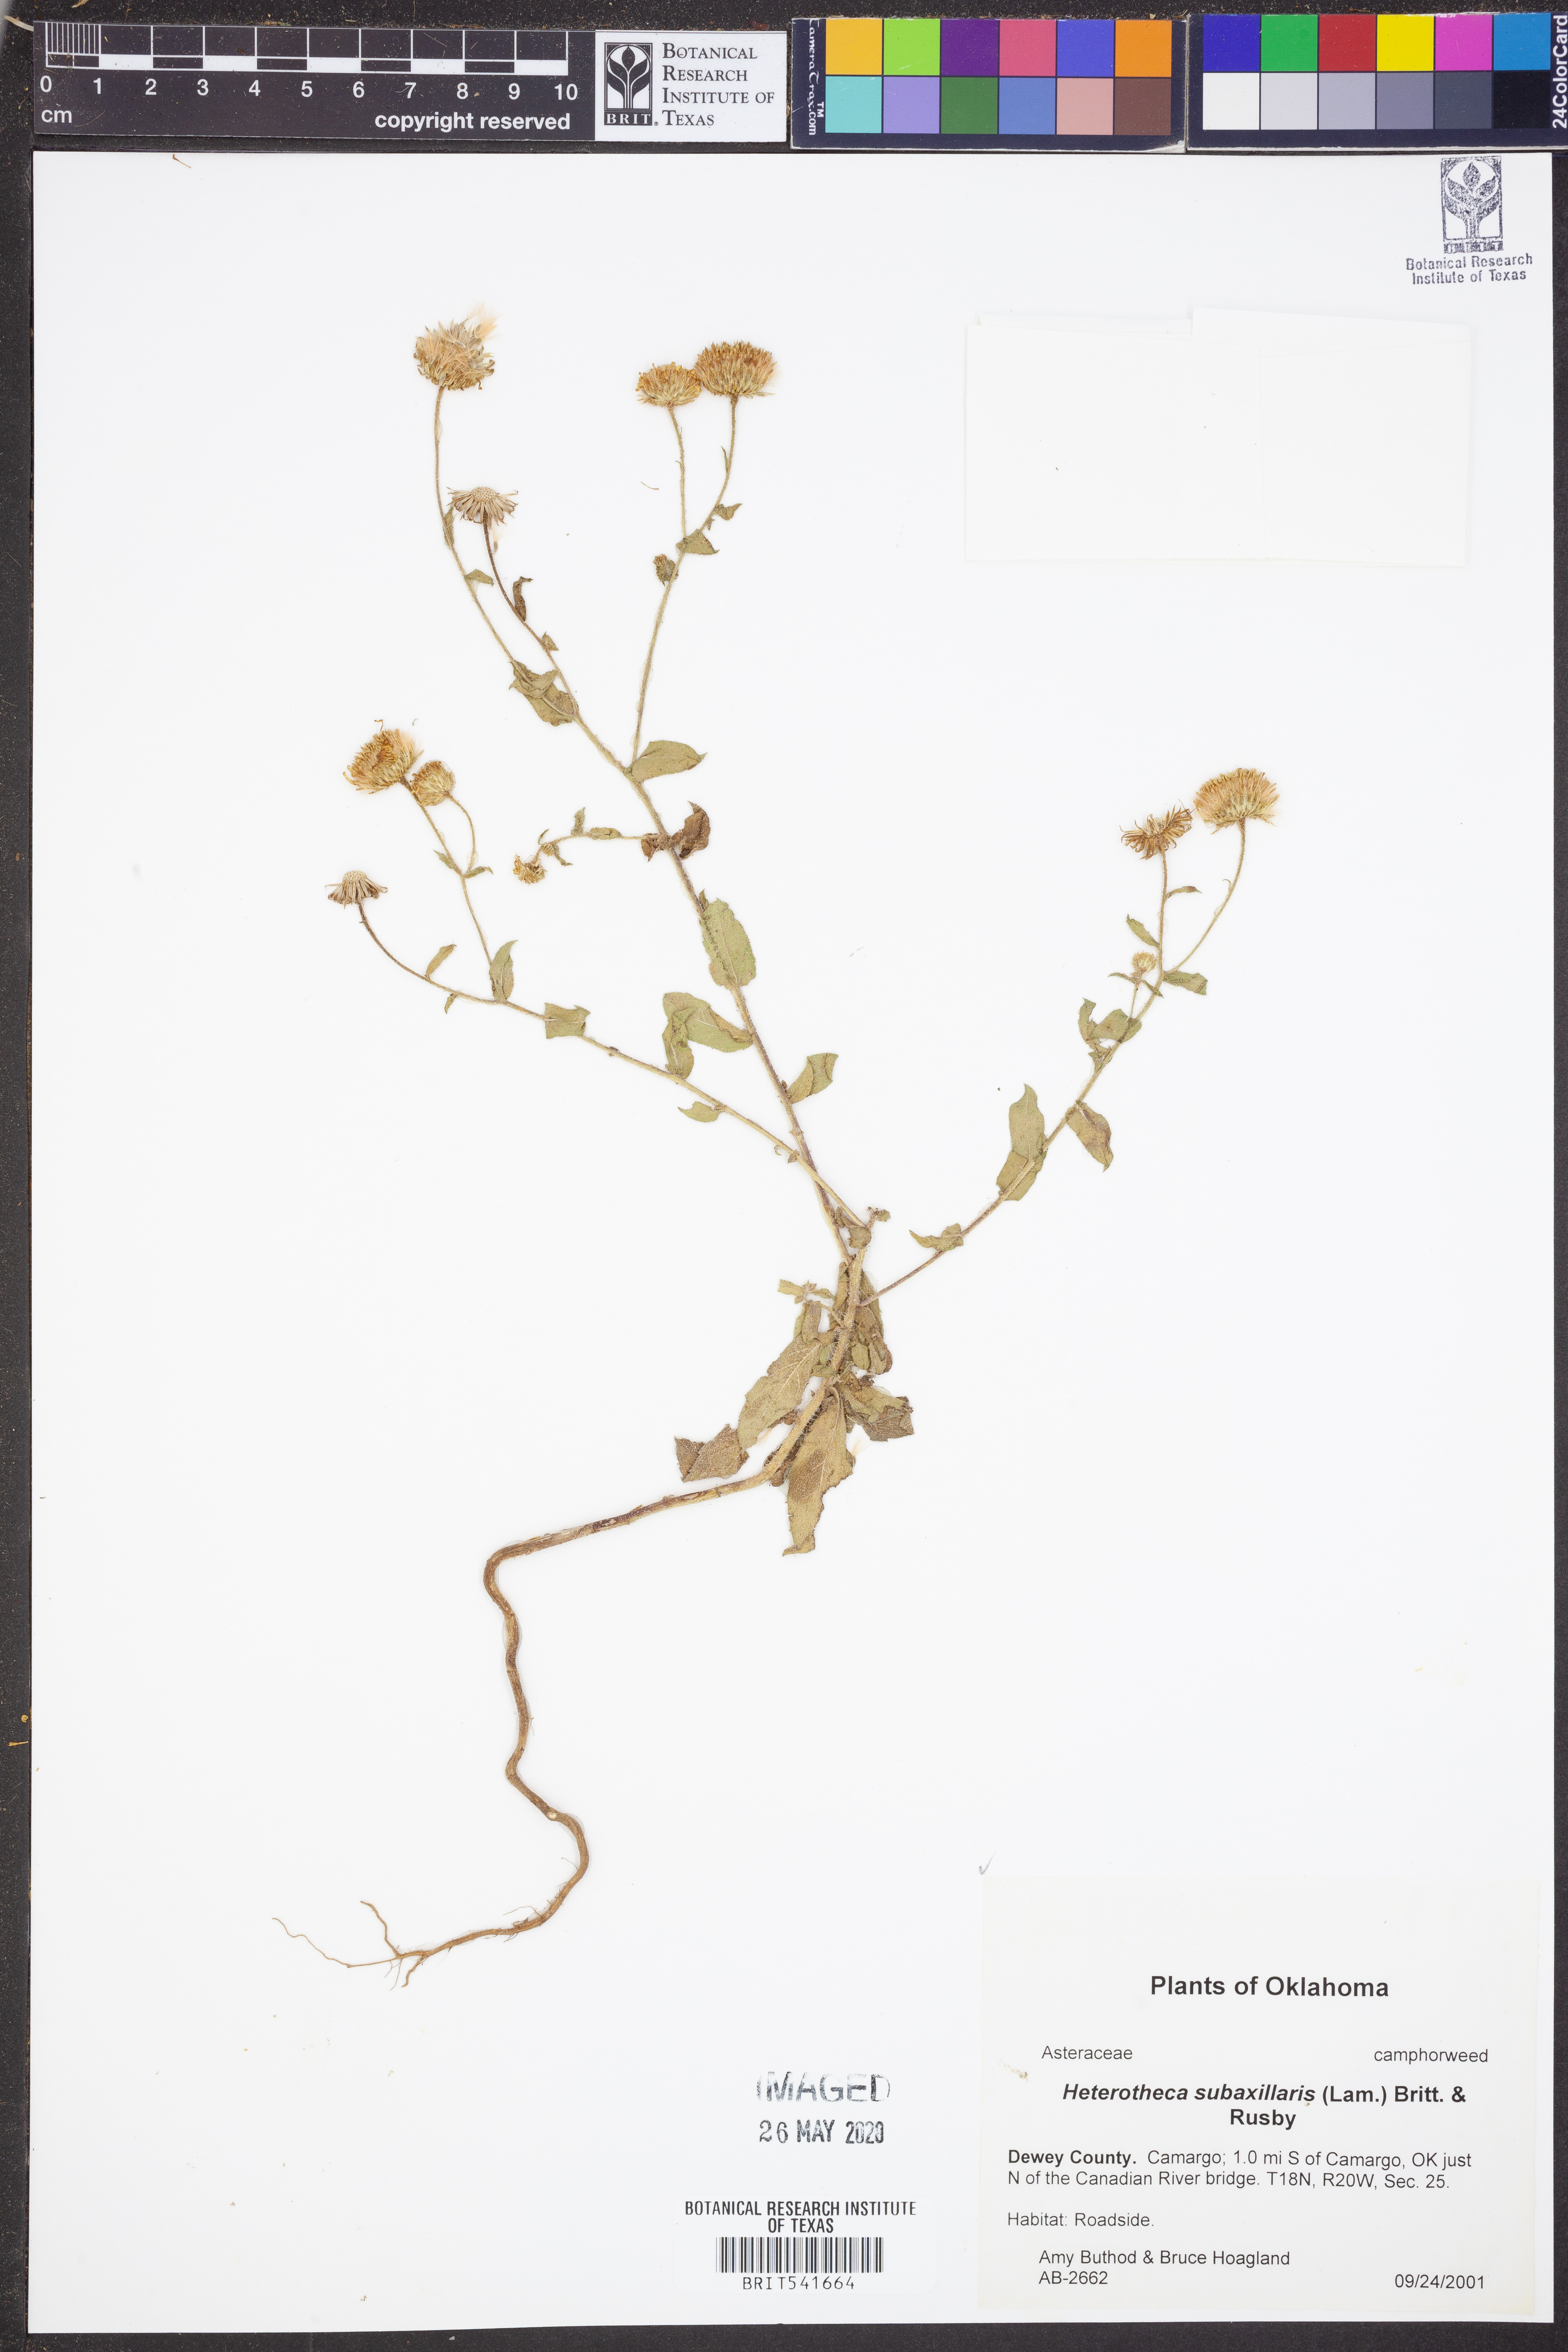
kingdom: Plantae
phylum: Tracheophyta
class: Magnoliopsida
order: Asterales
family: Asteraceae
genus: Heterotheca
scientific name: Heterotheca subaxillaris
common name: Camphorweed
